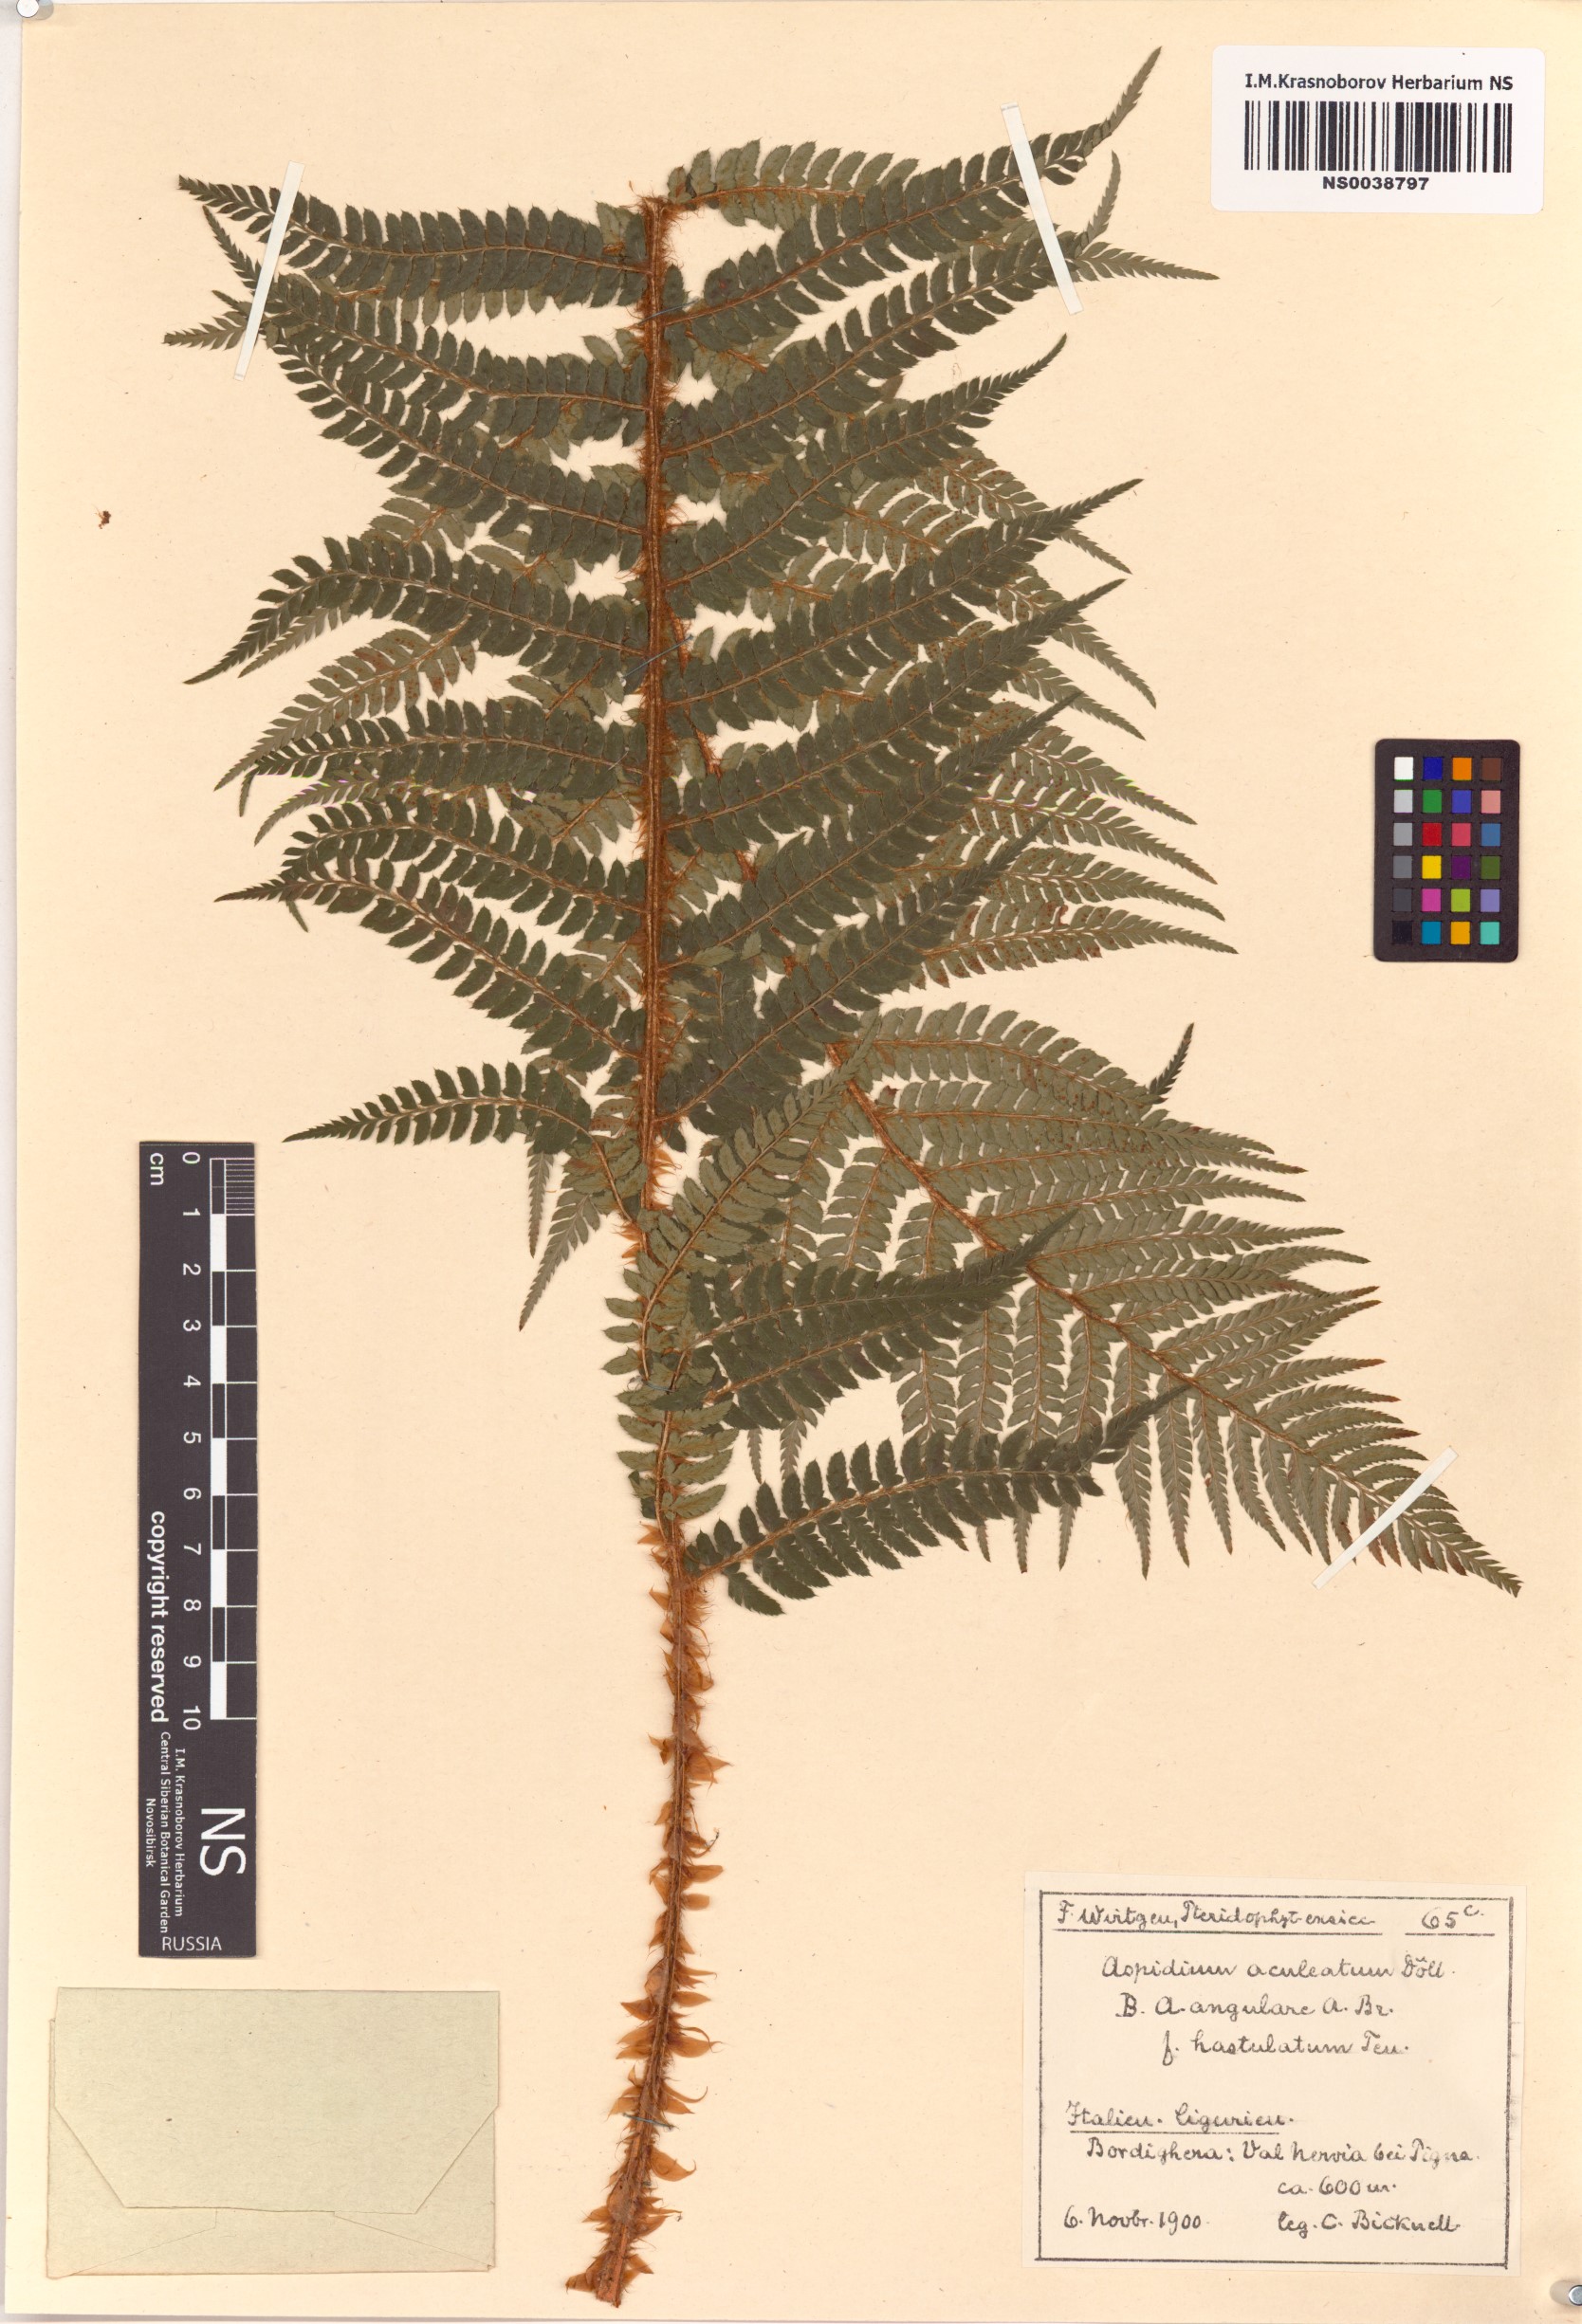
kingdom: Plantae
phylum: Tracheophyta
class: Polypodiopsida
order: Polypodiales
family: Dryopteridaceae
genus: Polystichum
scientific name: Polystichum aculeatum
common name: Hard shield-fern
